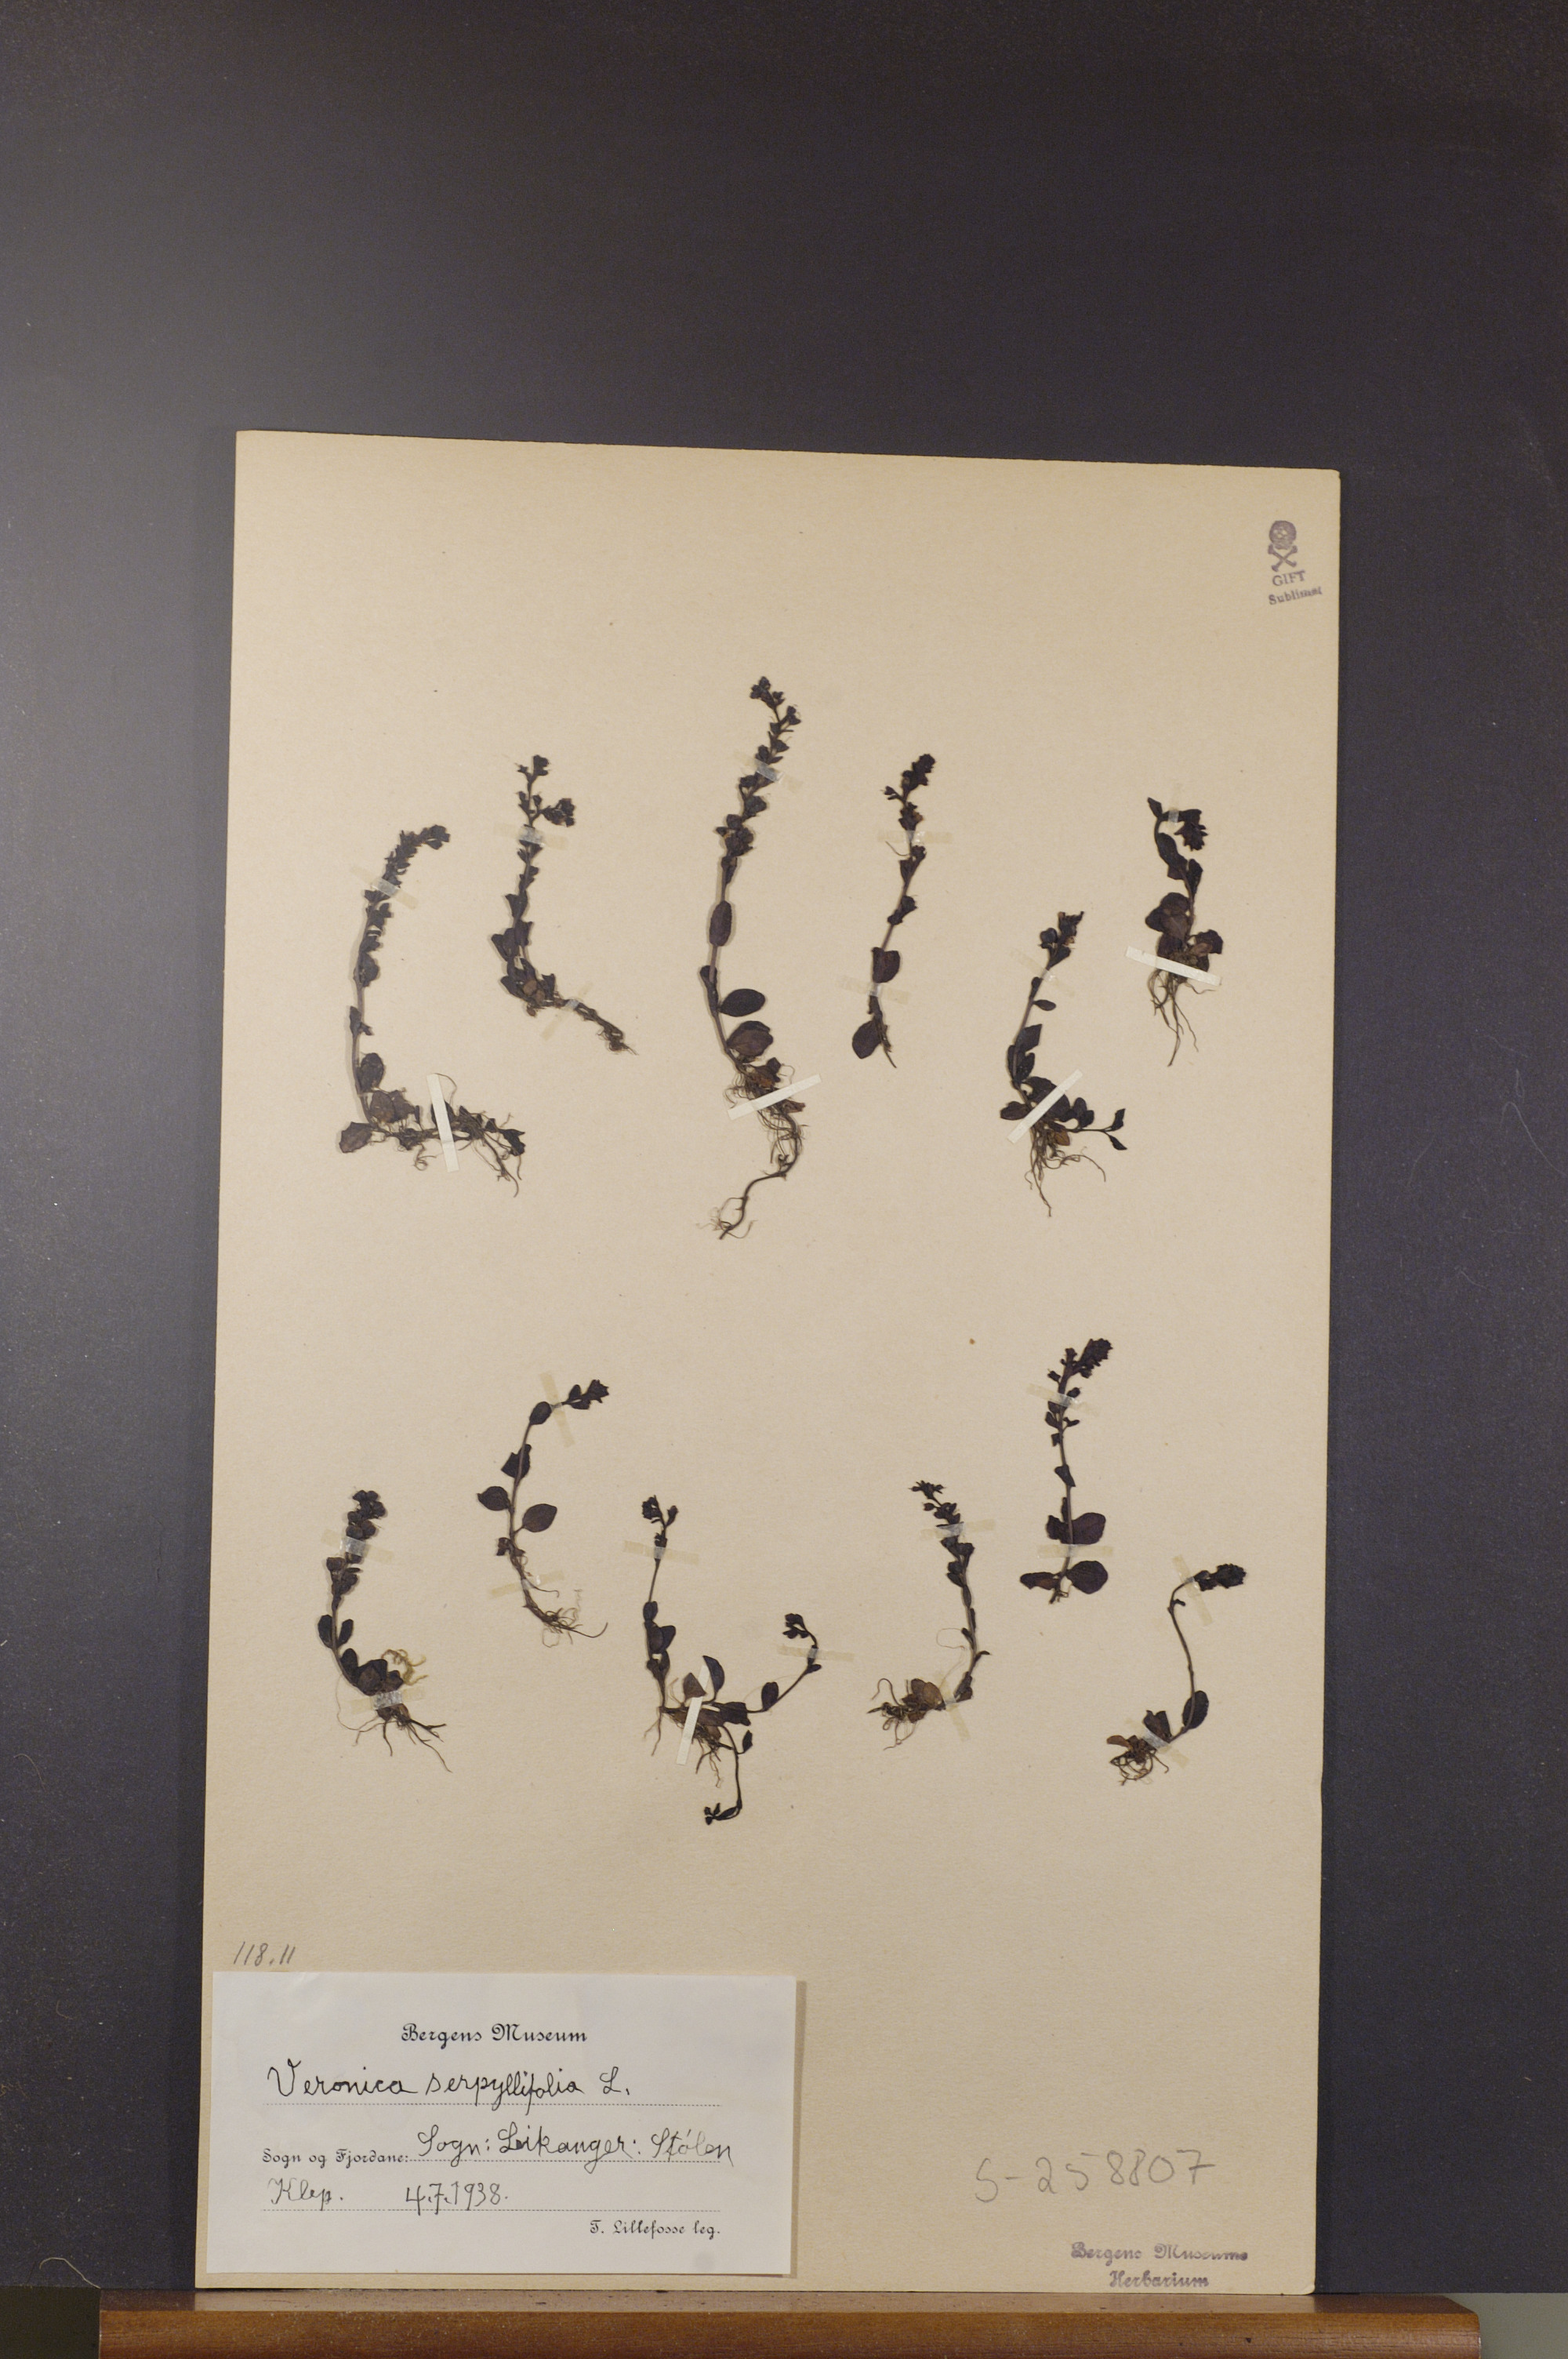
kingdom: Plantae
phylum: Tracheophyta
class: Magnoliopsida
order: Lamiales
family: Plantaginaceae
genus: Veronica
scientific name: Veronica serpyllifolia
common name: Thyme-leaved speedwell
